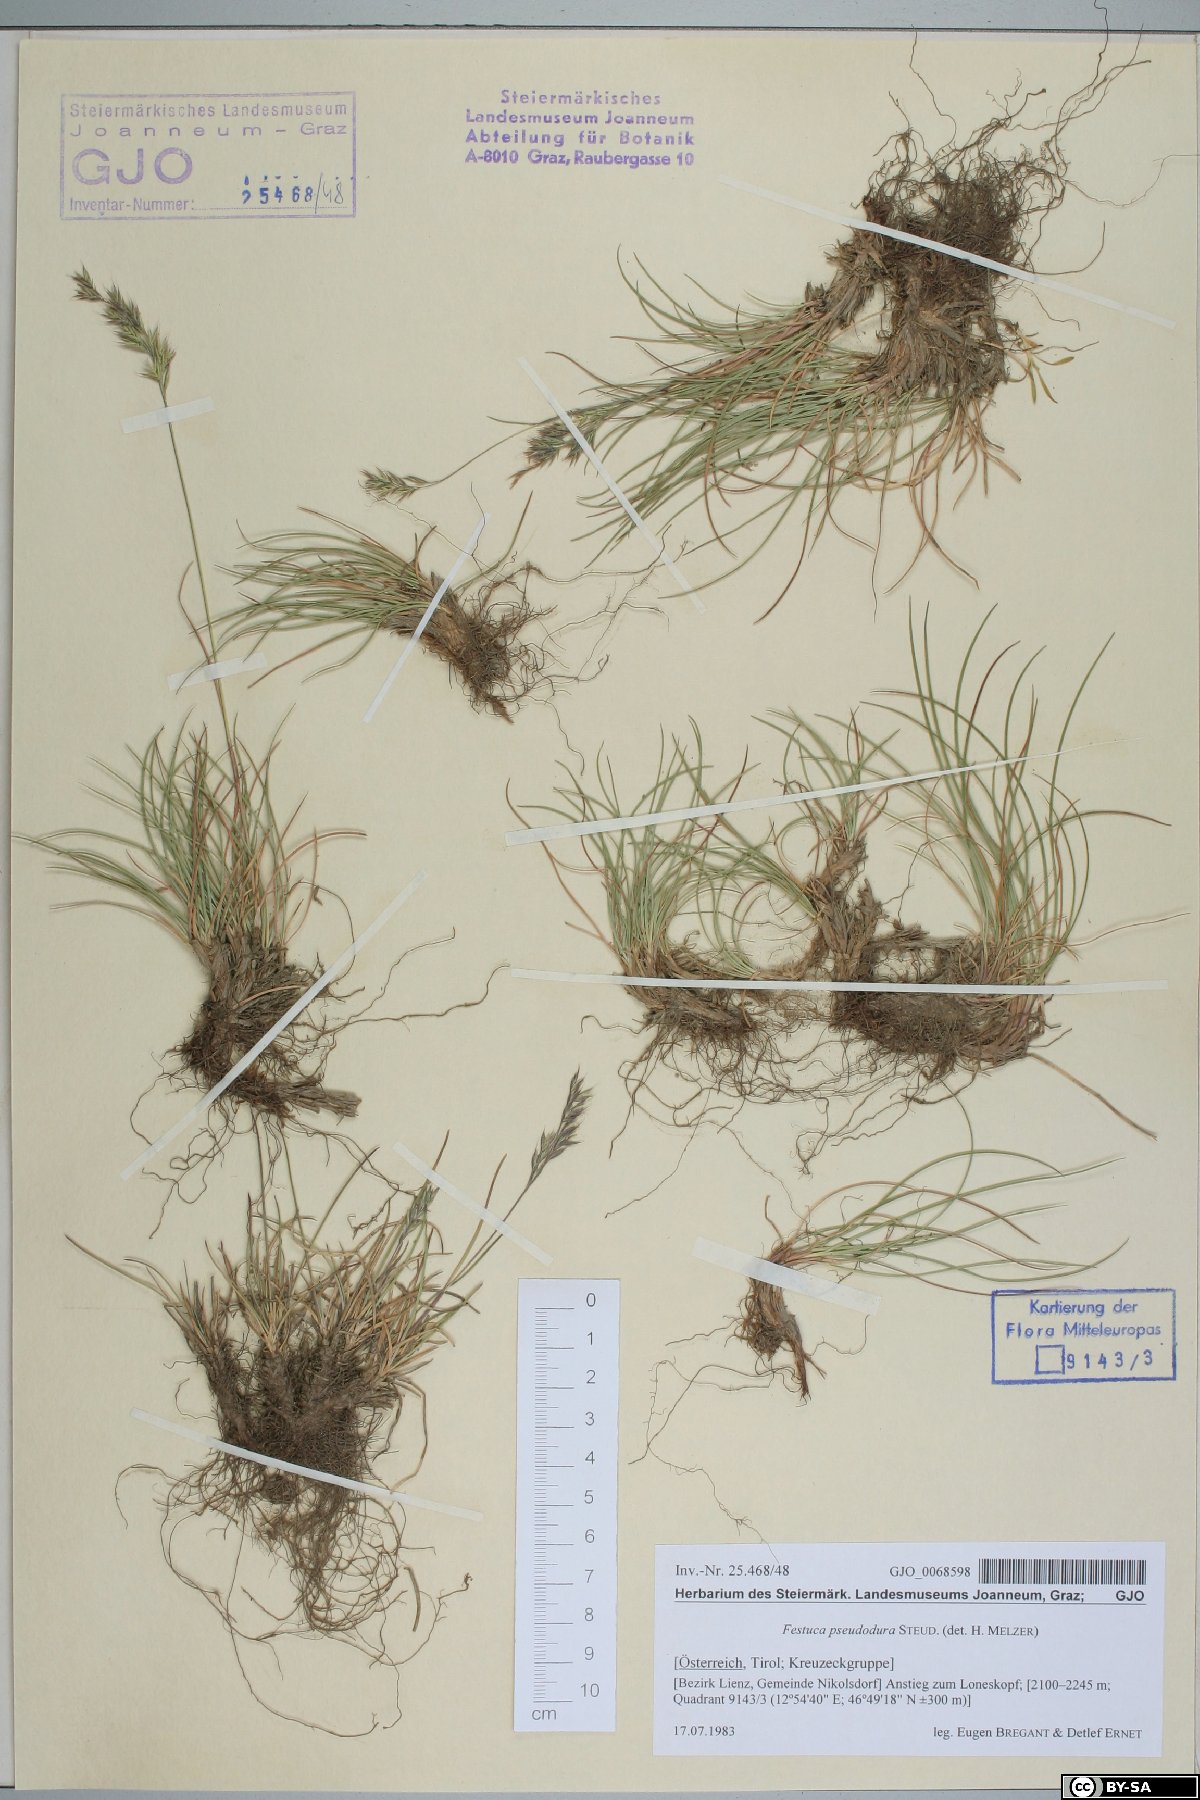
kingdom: Plantae
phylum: Tracheophyta
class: Liliopsida
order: Poales
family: Poaceae
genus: Festuca
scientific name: Festuca pseudodura
